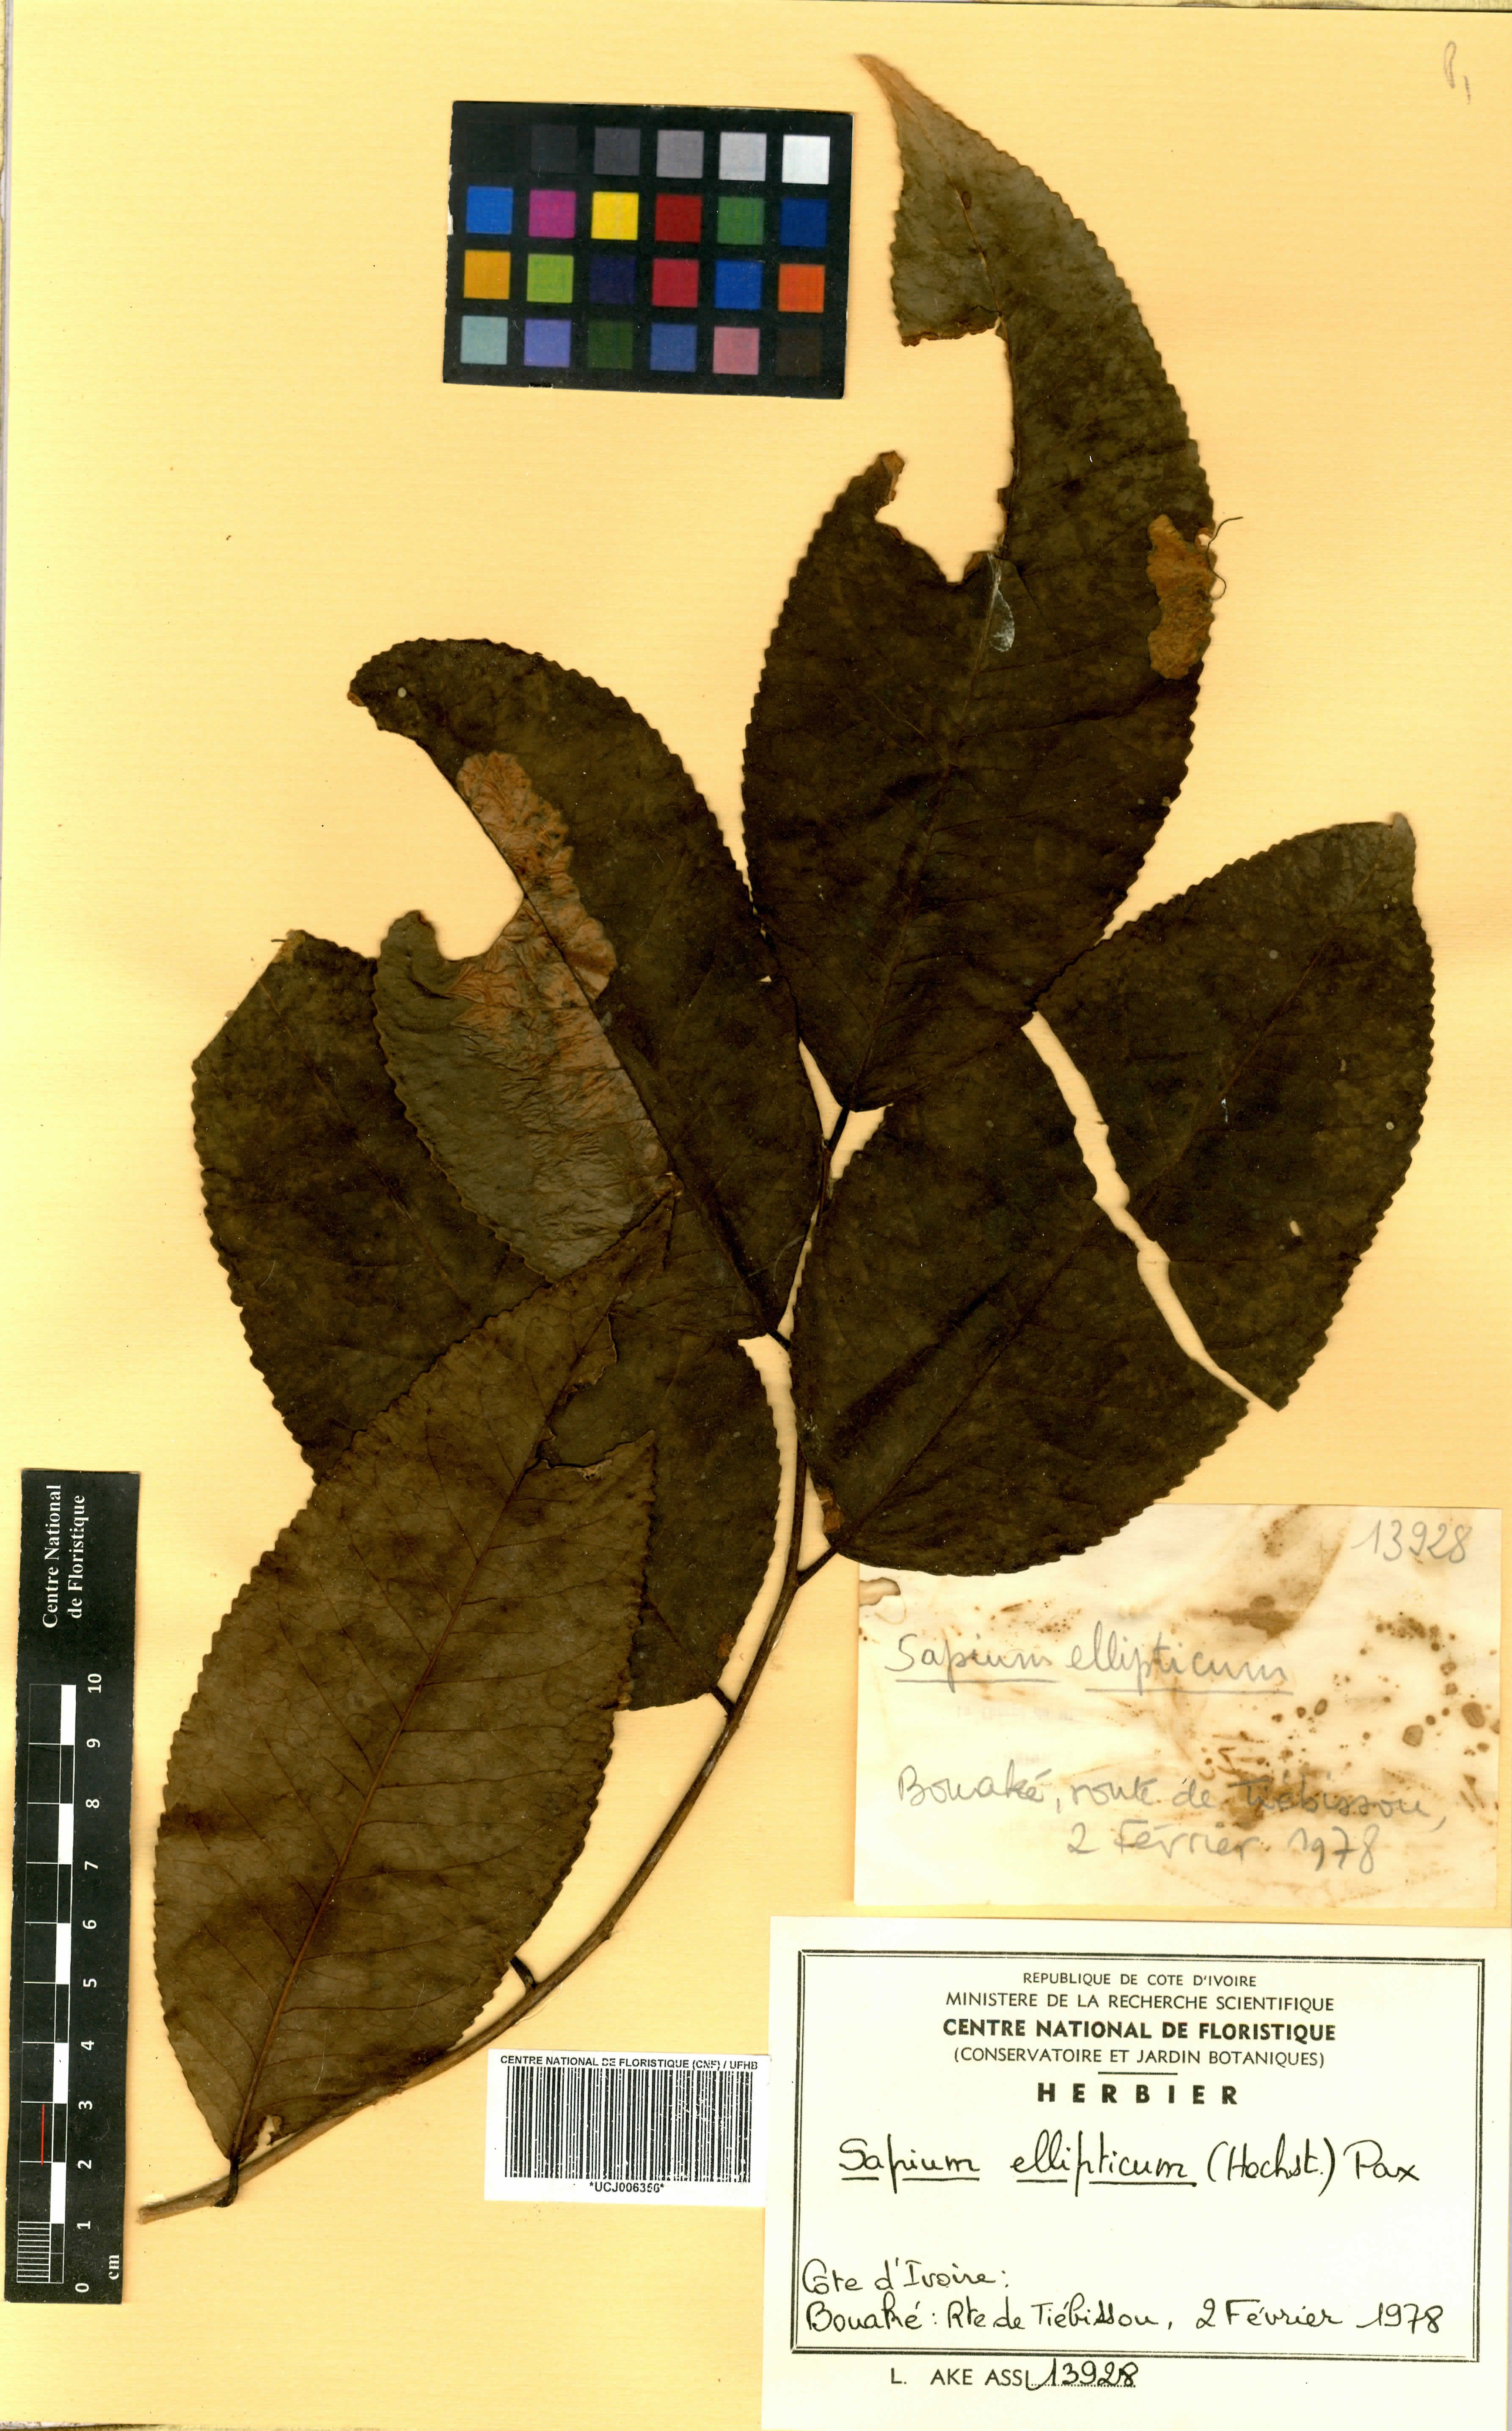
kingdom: Plantae
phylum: Tracheophyta
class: Magnoliopsida
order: Malpighiales
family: Euphorbiaceae
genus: Shirakiopsis
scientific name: Shirakiopsis elliptica
